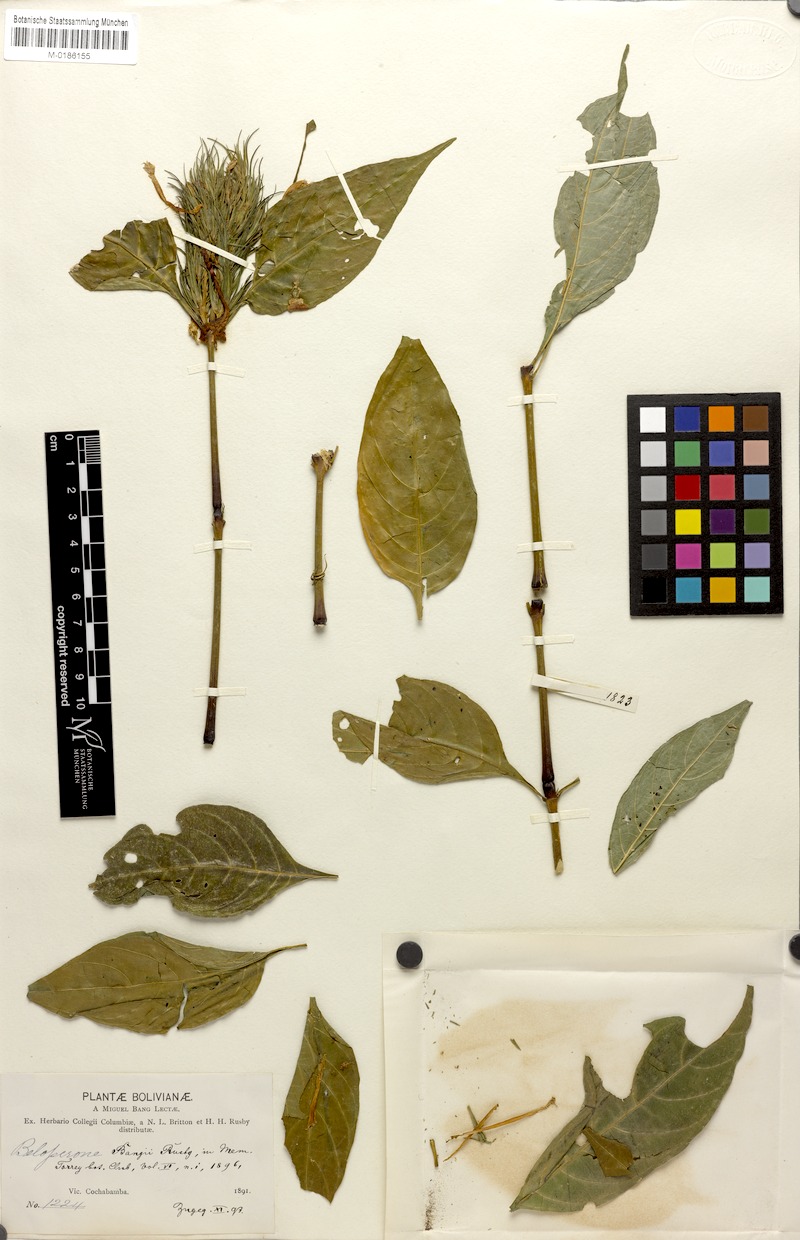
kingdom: Plantae
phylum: Tracheophyta
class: Magnoliopsida
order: Lamiales
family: Acanthaceae
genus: Justicia
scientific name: Justicia riedeliana
